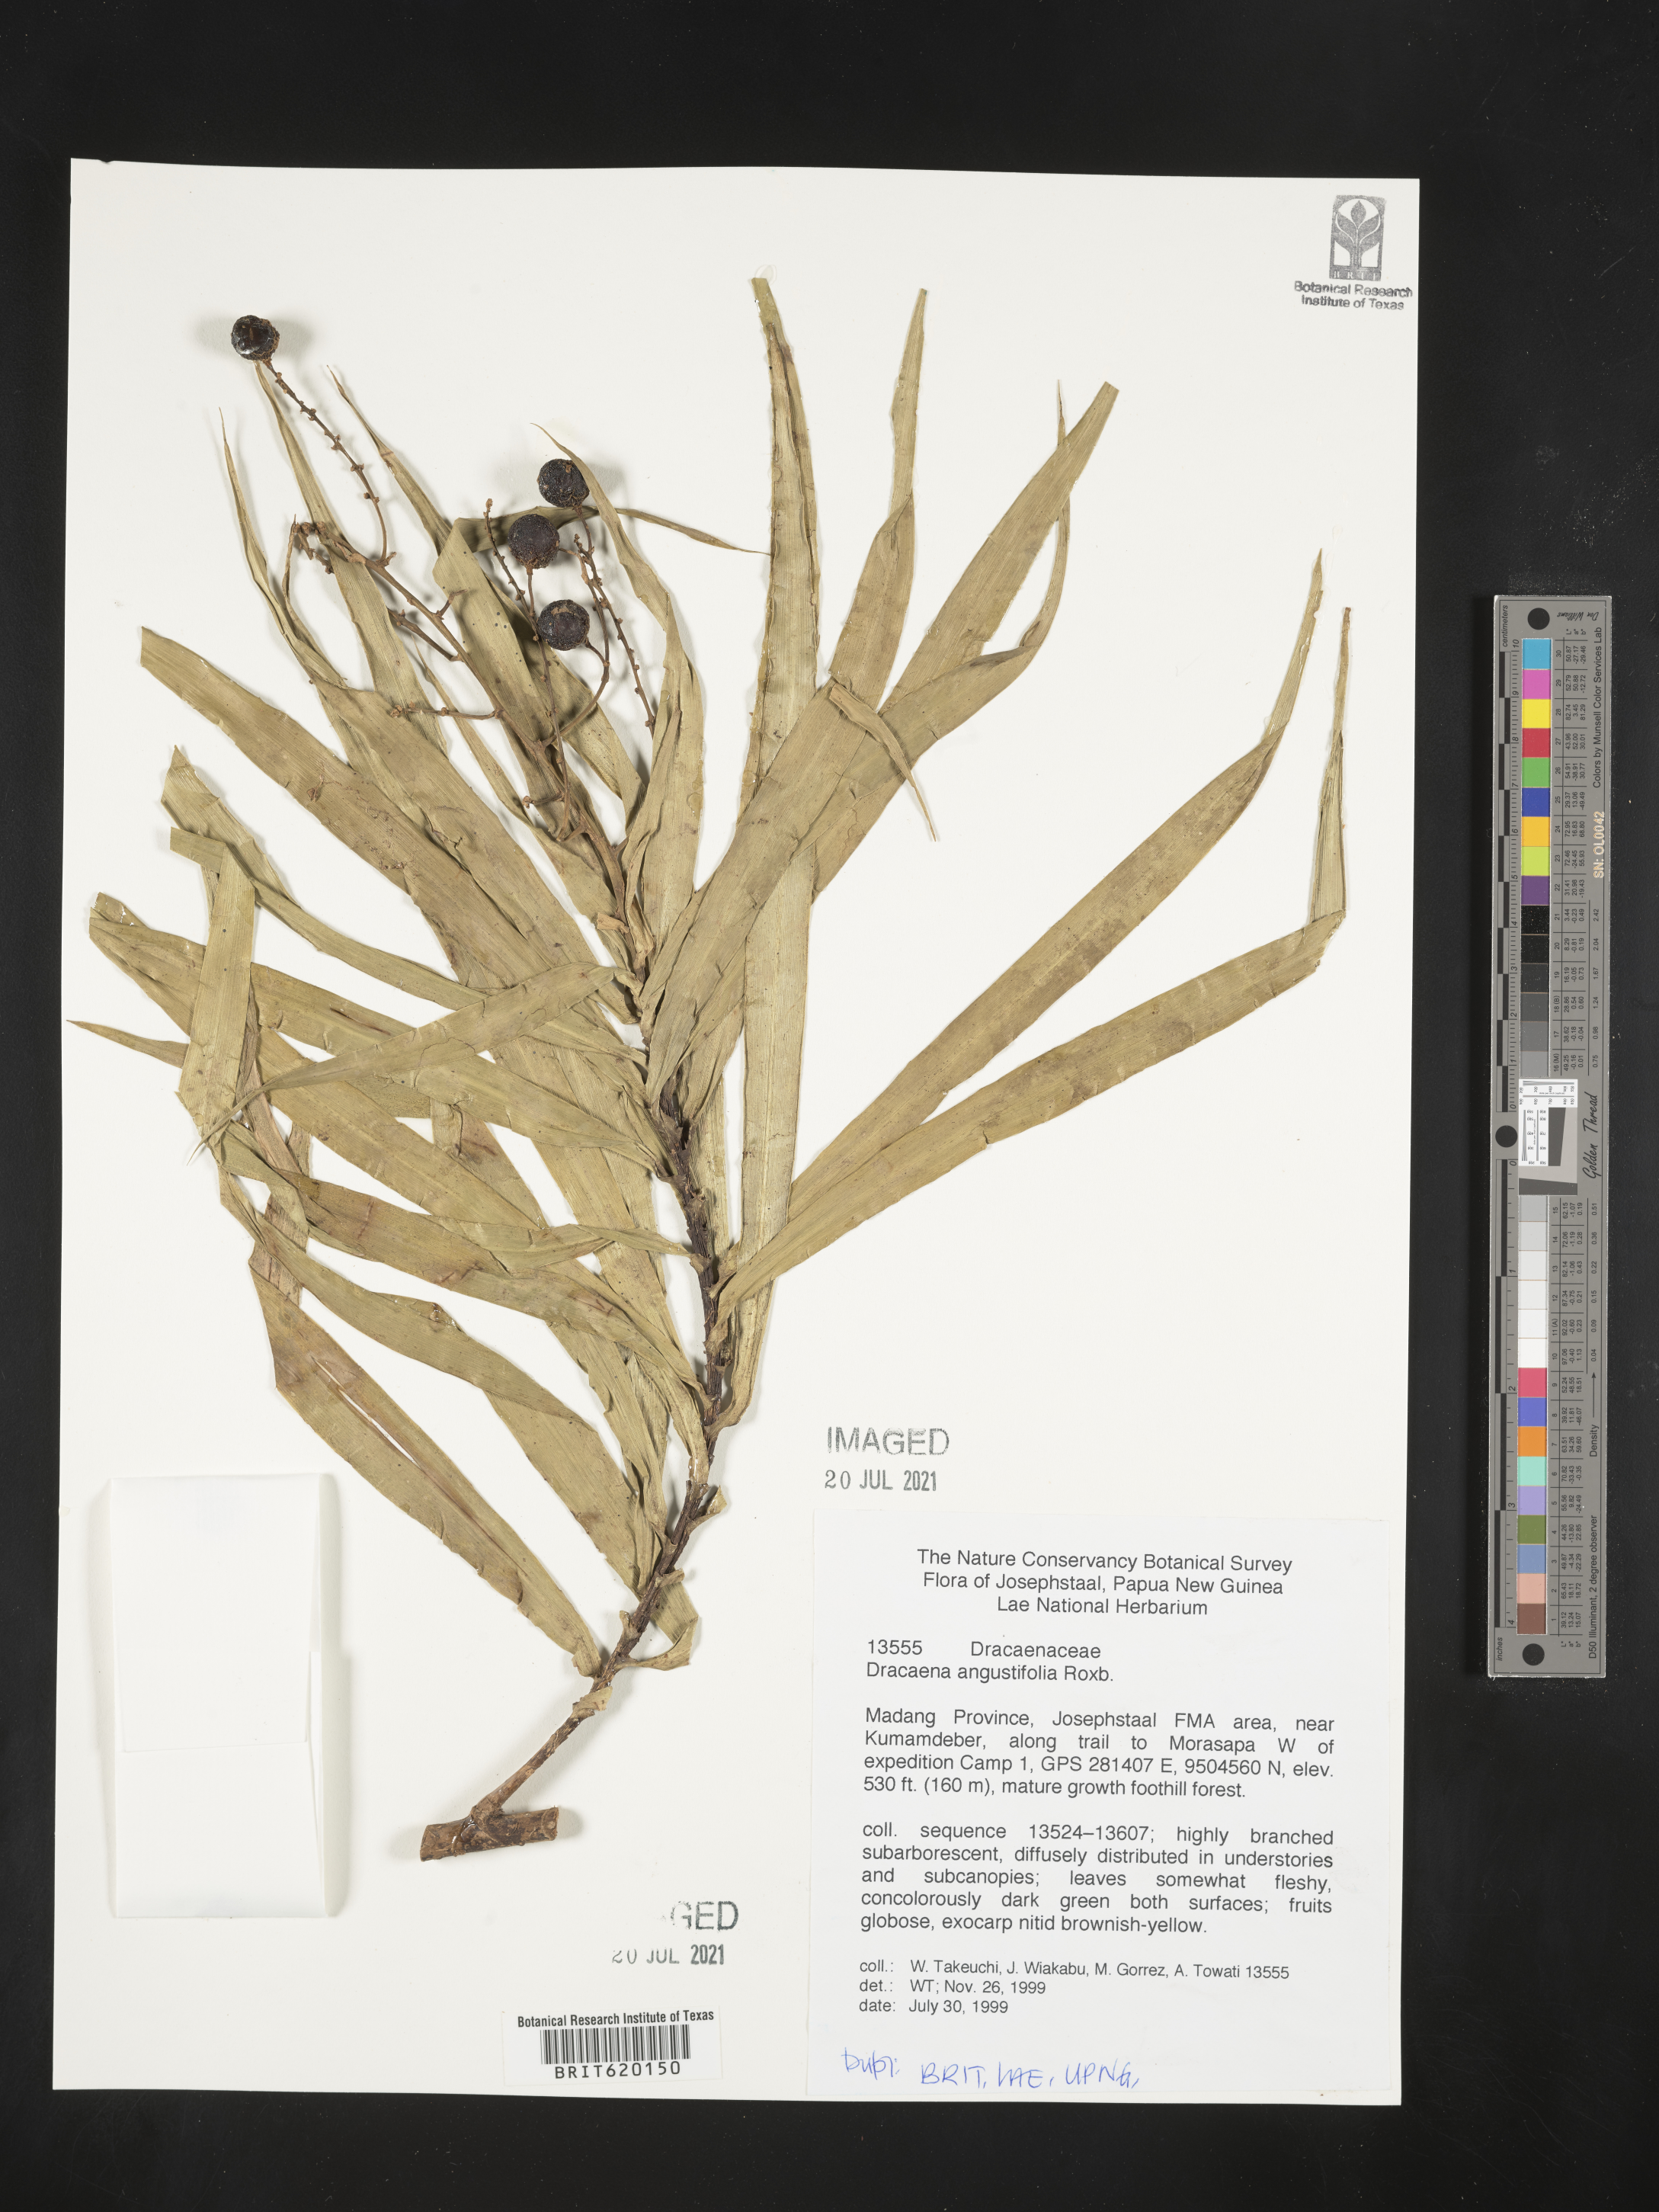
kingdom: Plantae
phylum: Tracheophyta
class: Liliopsida
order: Asparagales
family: Asparagaceae
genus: Dracaena
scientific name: Dracaena angustifolia
